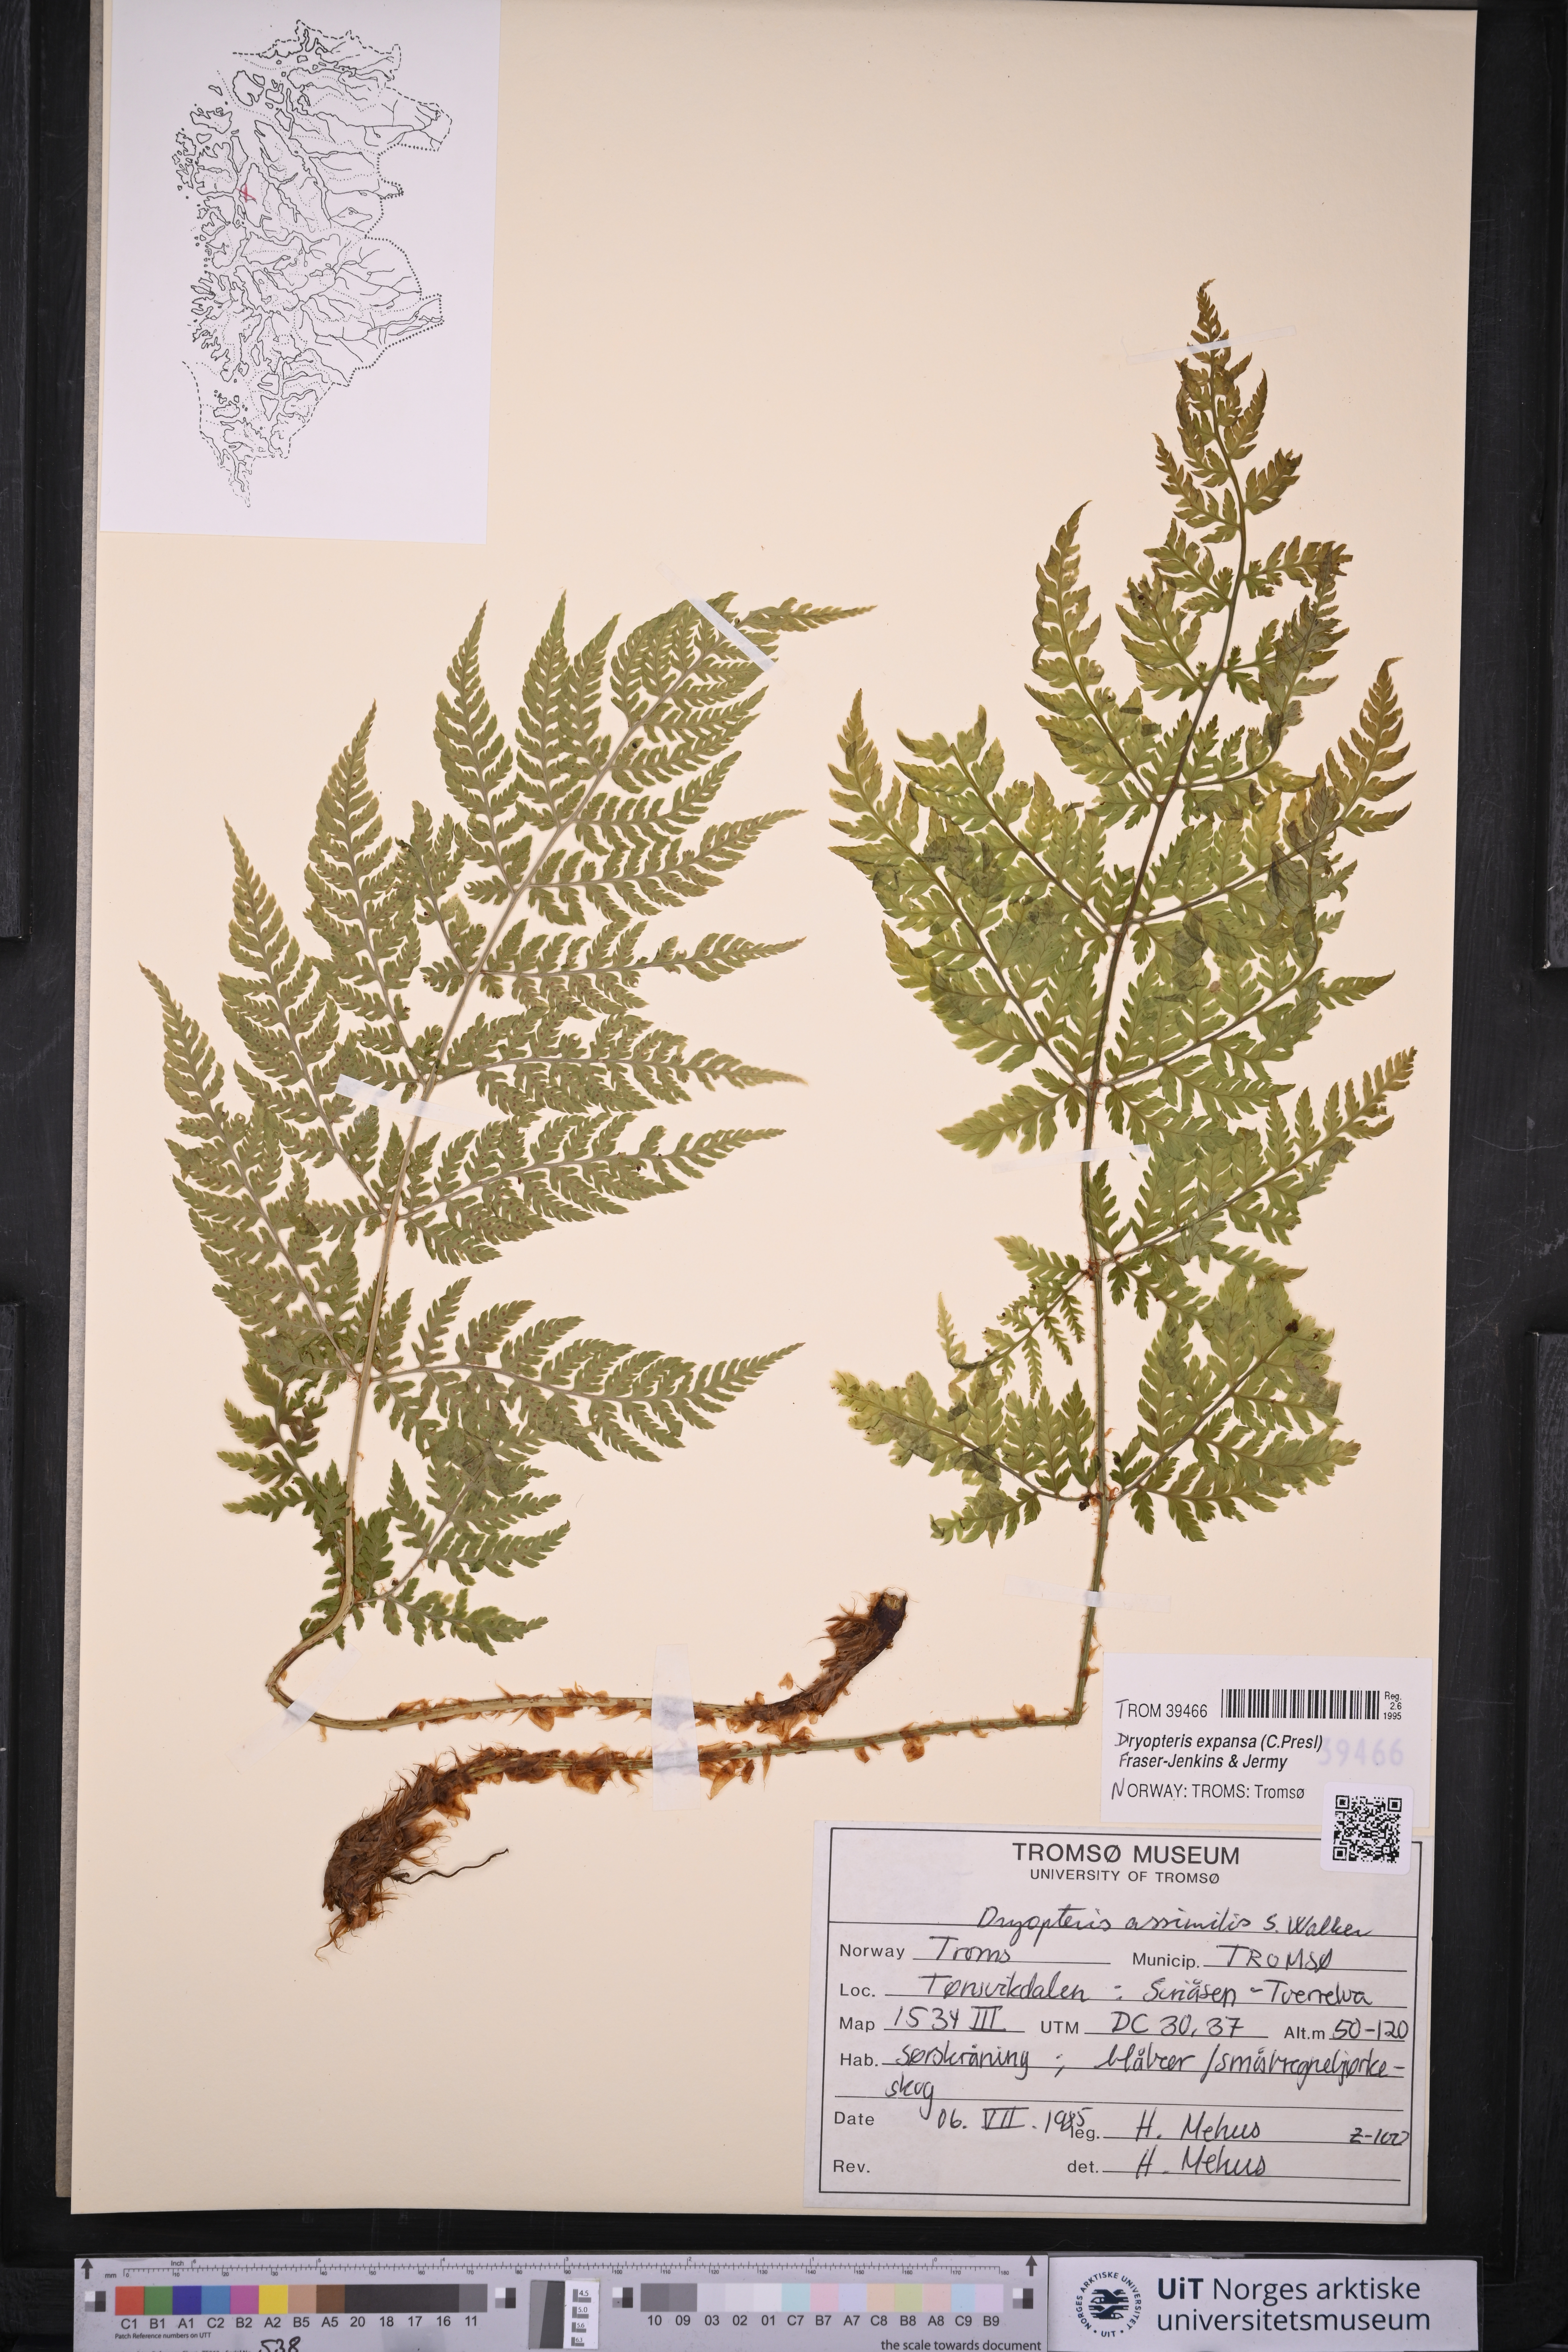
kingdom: Plantae
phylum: Tracheophyta
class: Polypodiopsida
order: Polypodiales
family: Dryopteridaceae
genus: Dryopteris
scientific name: Dryopteris expansa
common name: Northern buckler fern
